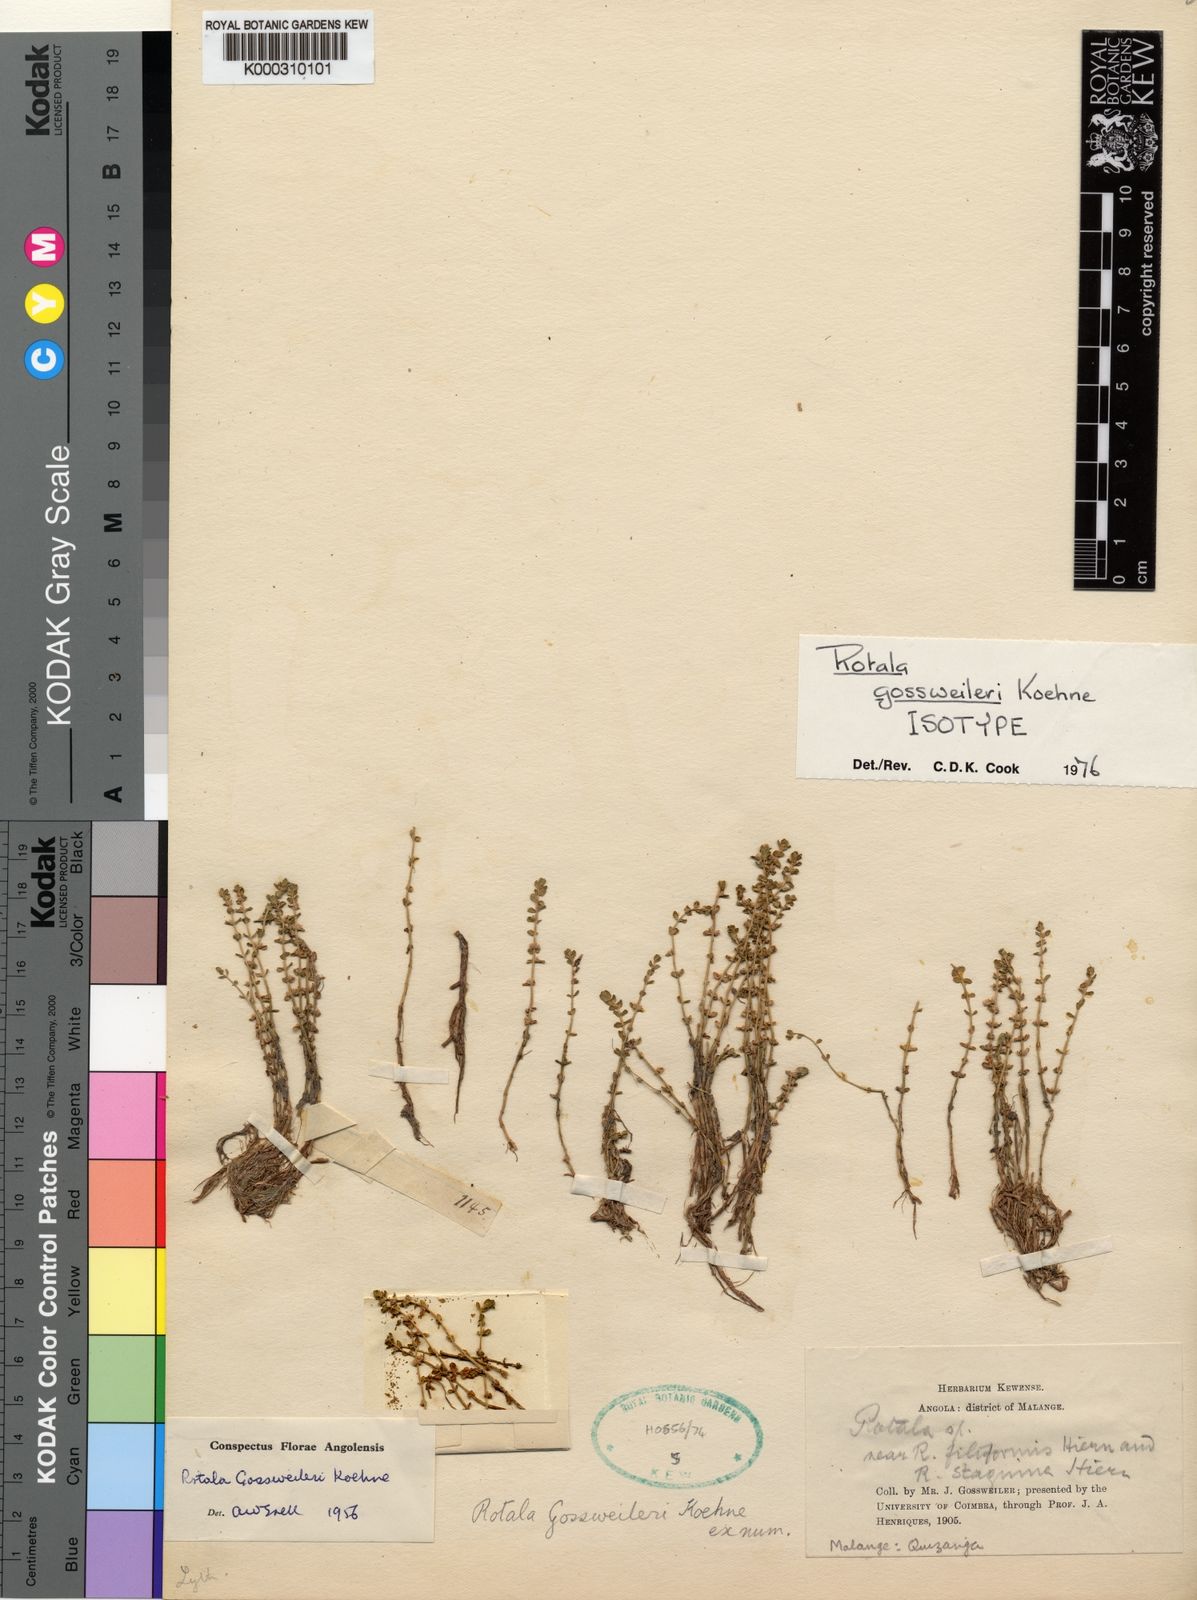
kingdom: Plantae
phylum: Tracheophyta
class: Magnoliopsida
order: Myrtales
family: Lythraceae
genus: Rotala
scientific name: Rotala gossweileri
